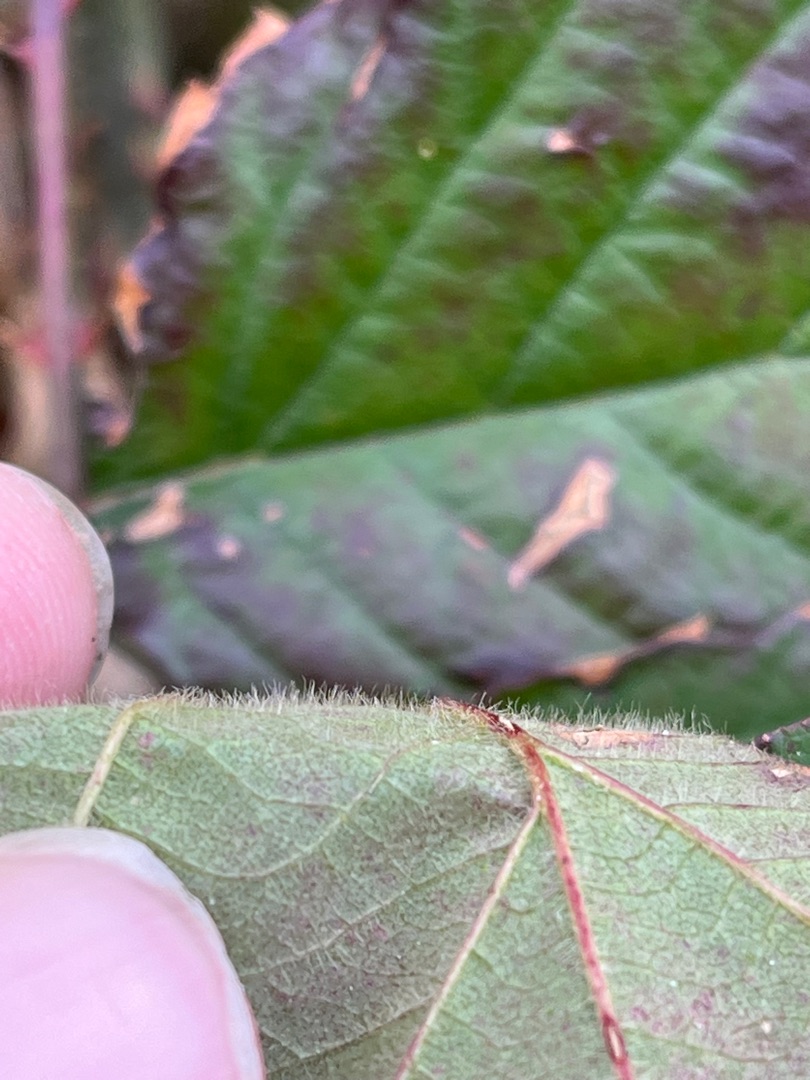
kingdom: Plantae
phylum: Tracheophyta
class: Magnoliopsida
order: Rosales
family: Rosaceae
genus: Rubus
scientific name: Rubus vestitus
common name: Rundbladet brombær
